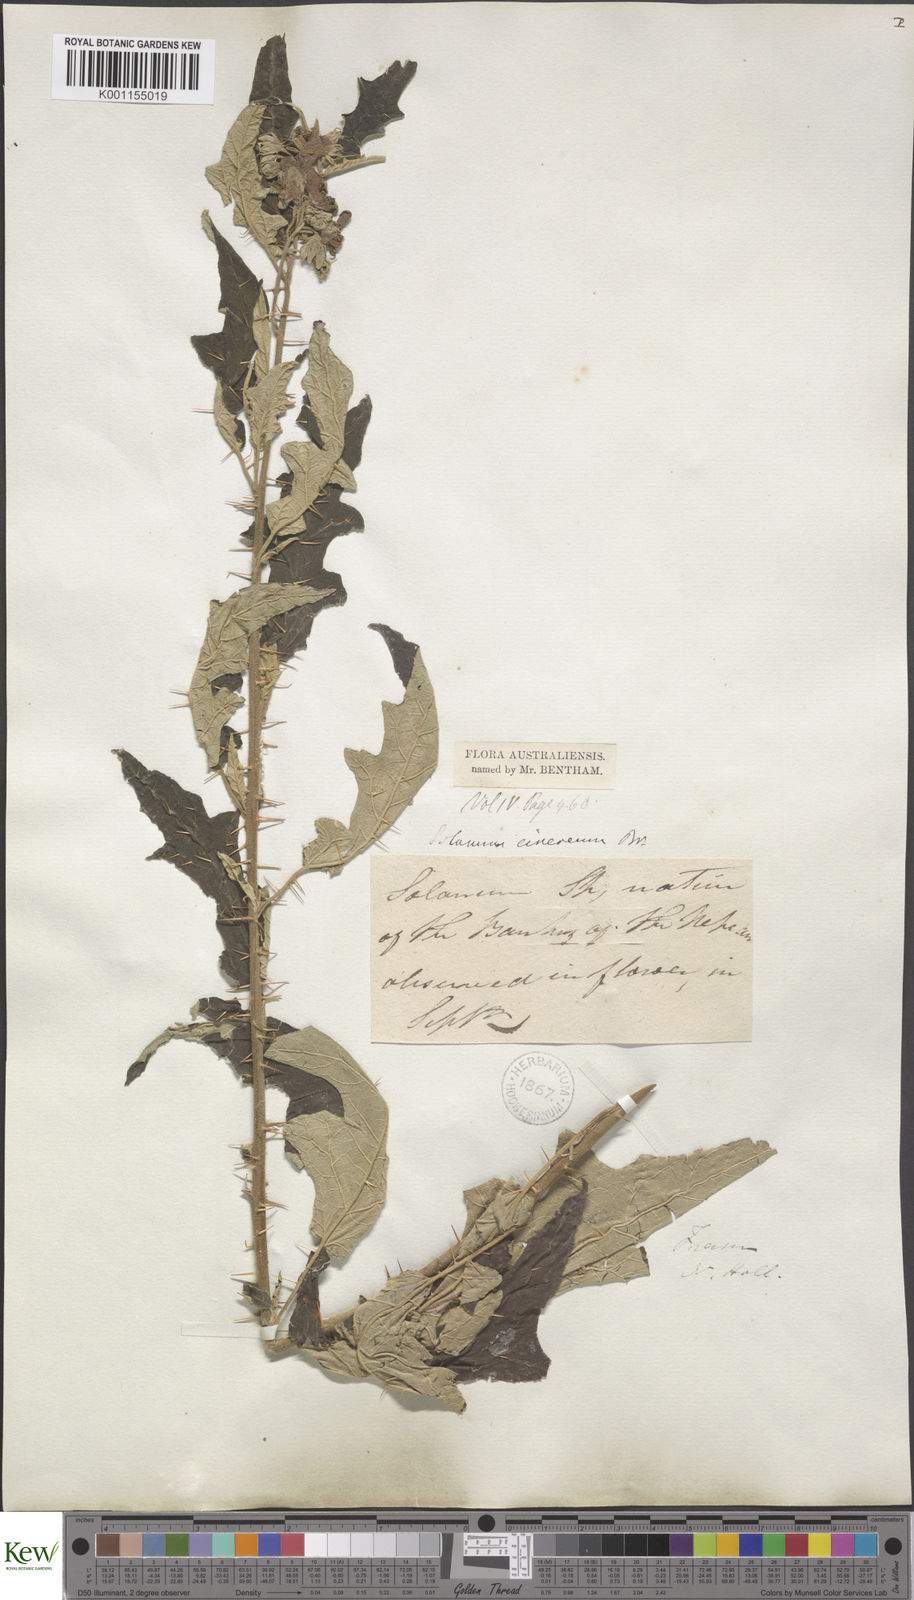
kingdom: Plantae
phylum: Tracheophyta
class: Magnoliopsida
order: Solanales
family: Solanaceae
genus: Solanum
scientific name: Solanum cinereum
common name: Narrawa-bur
